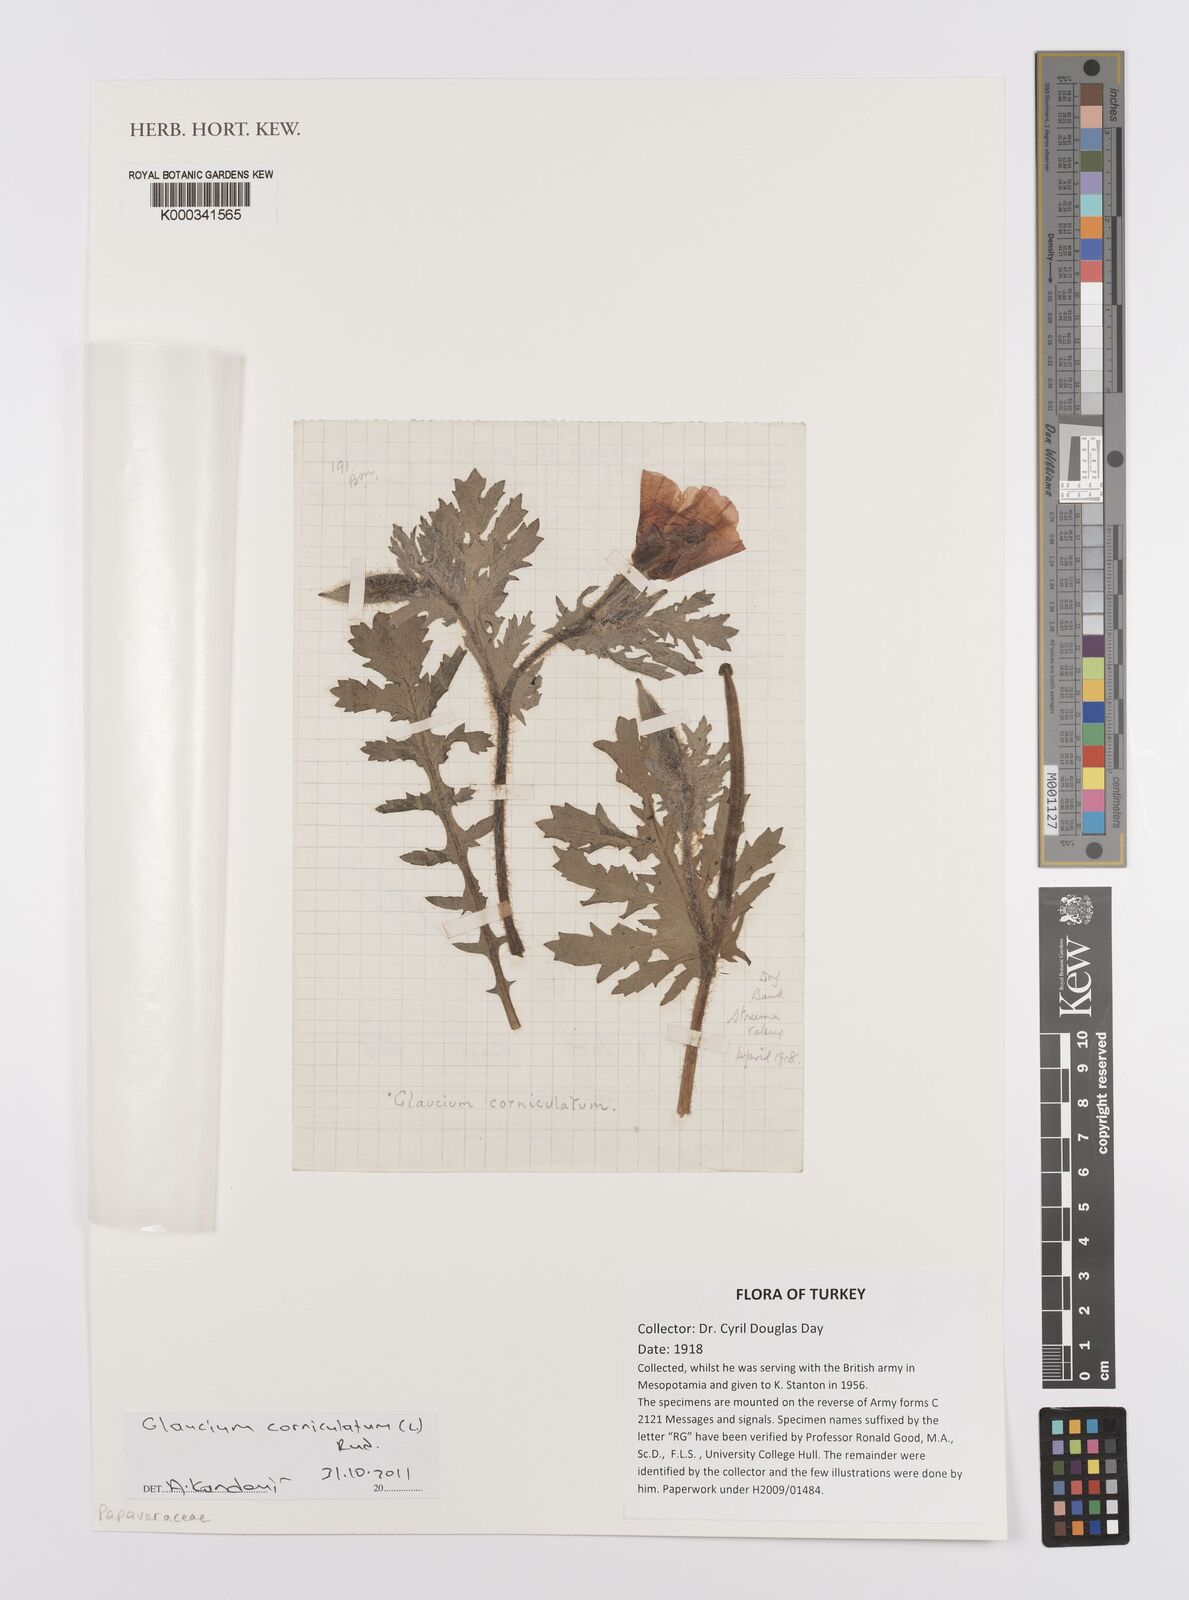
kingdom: Plantae
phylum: Tracheophyta
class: Magnoliopsida
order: Ranunculales
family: Papaveraceae
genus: Glaucium
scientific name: Glaucium
